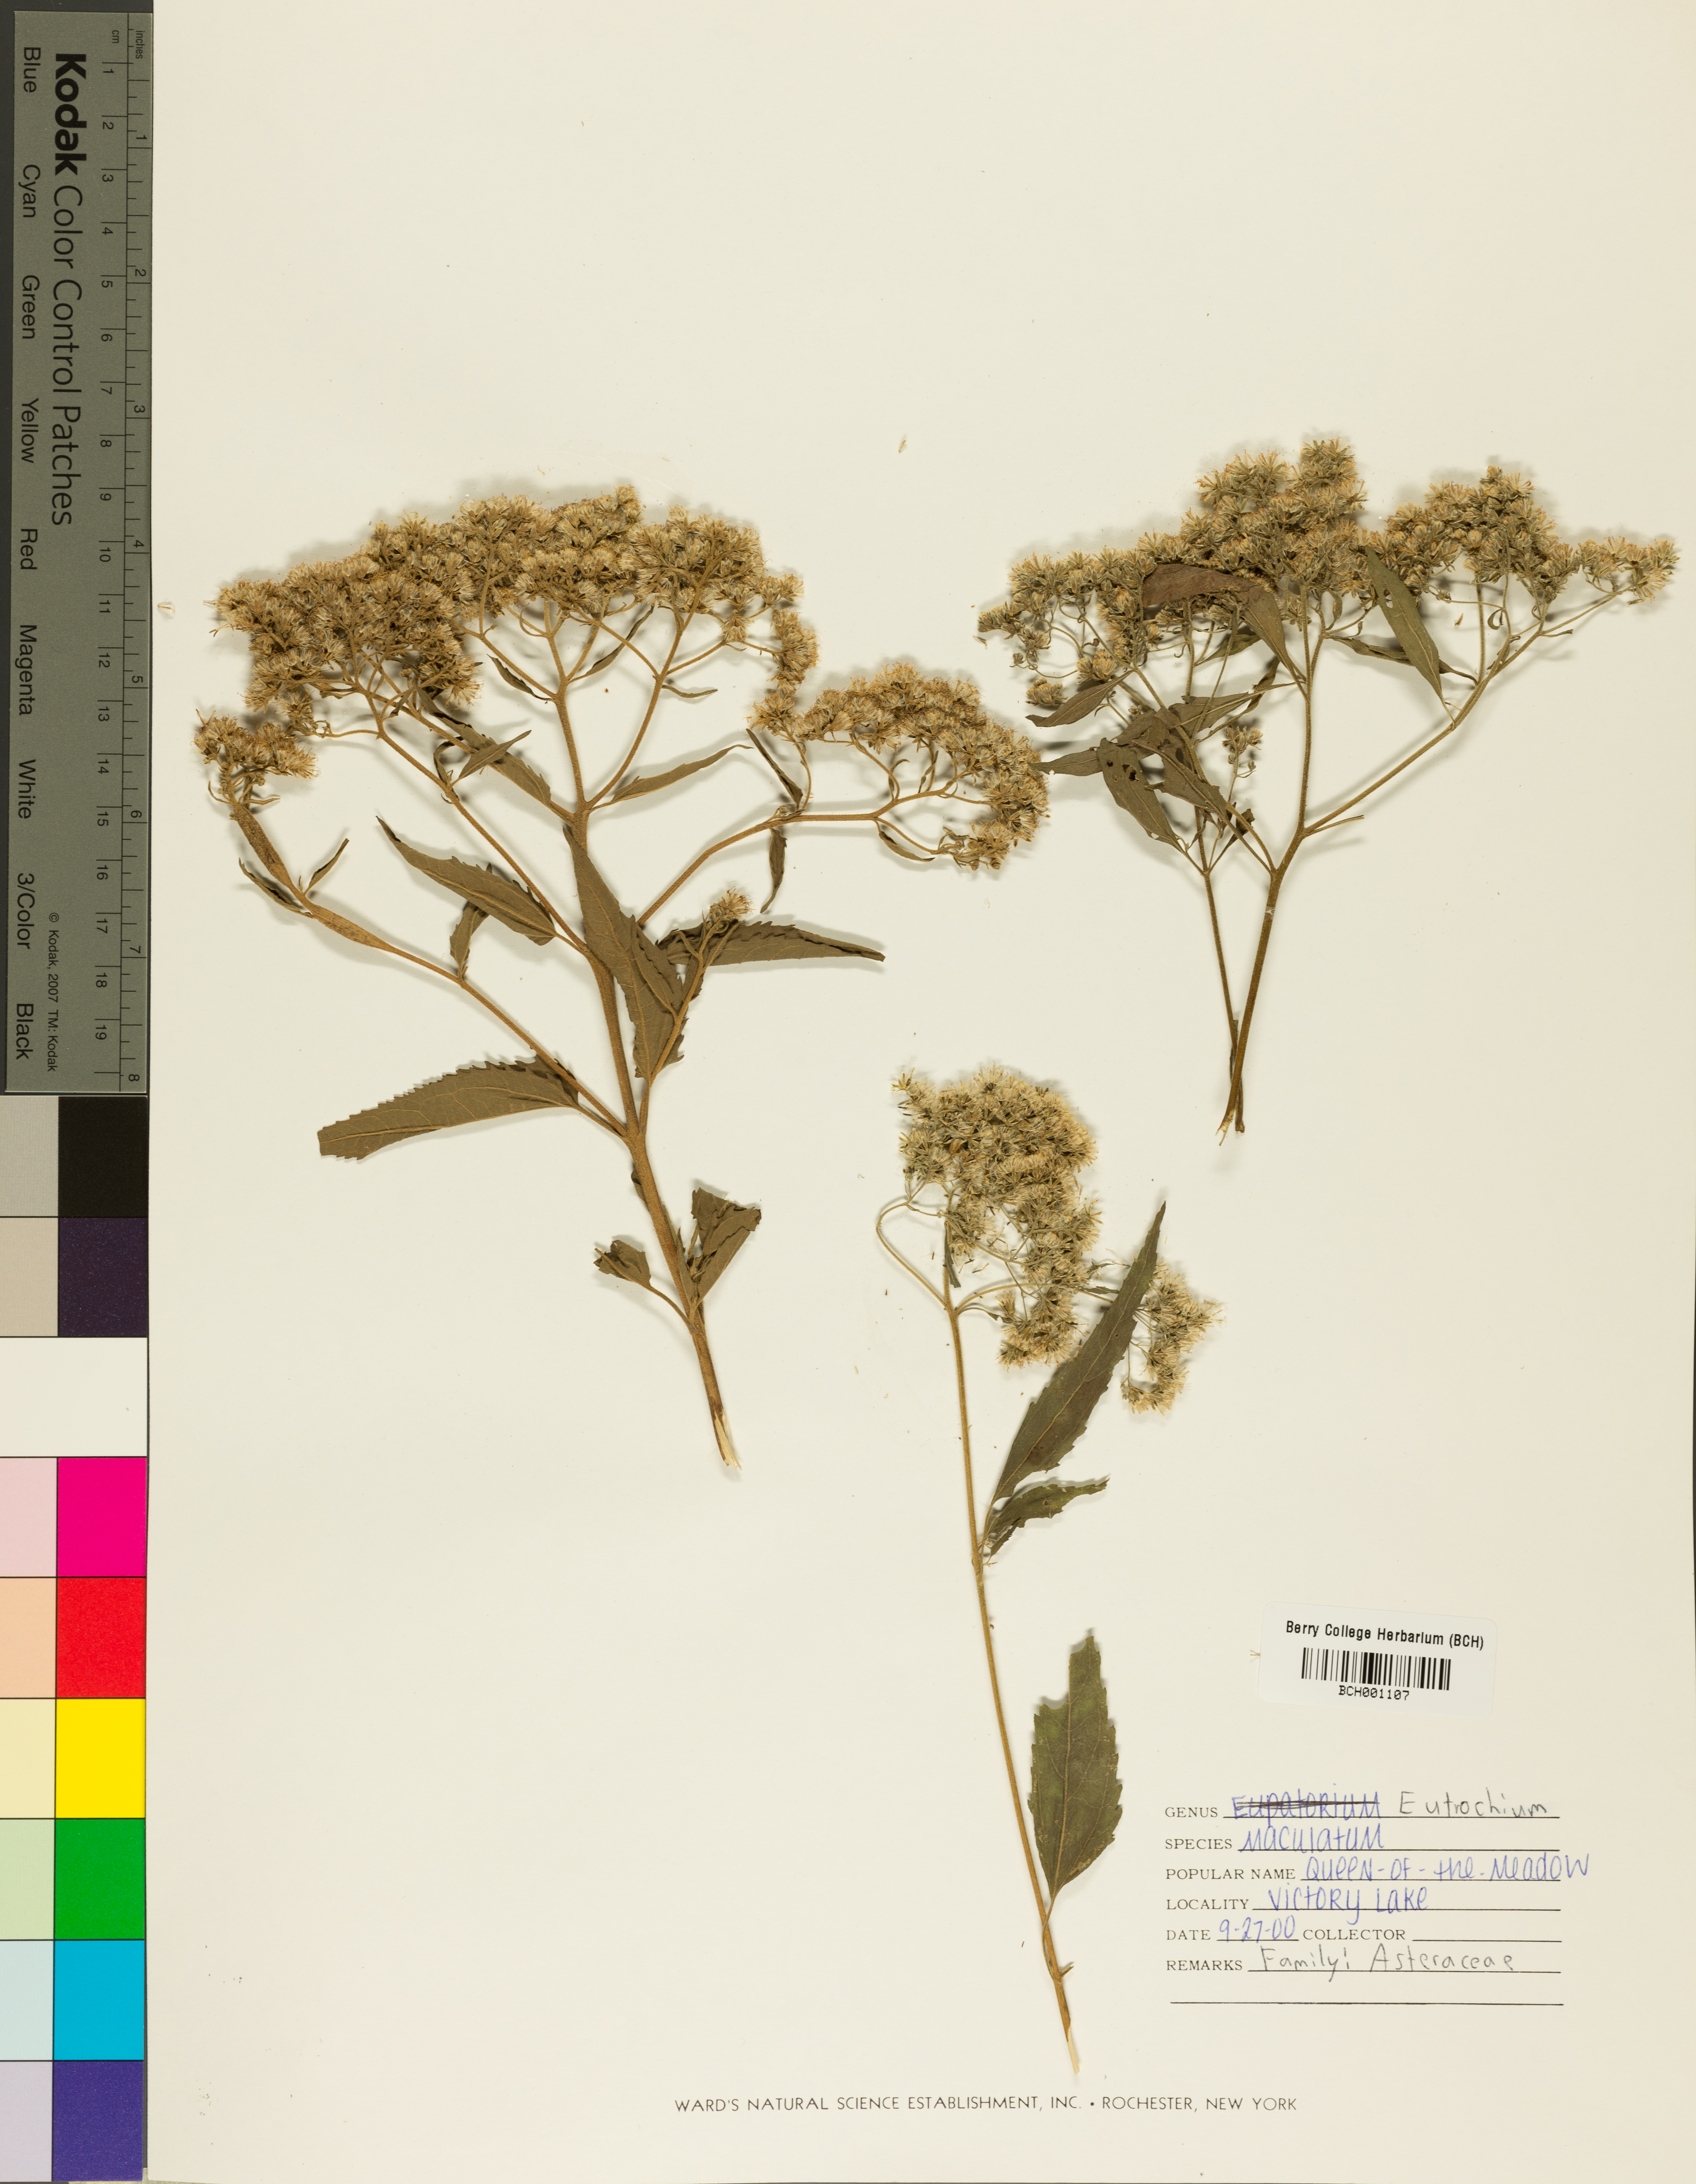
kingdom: Plantae
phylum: Tracheophyta
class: Magnoliopsida
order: Asterales
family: Asteraceae
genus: Eutrochium
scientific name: Eutrochium maculatum
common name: Spotted joe pye weed
